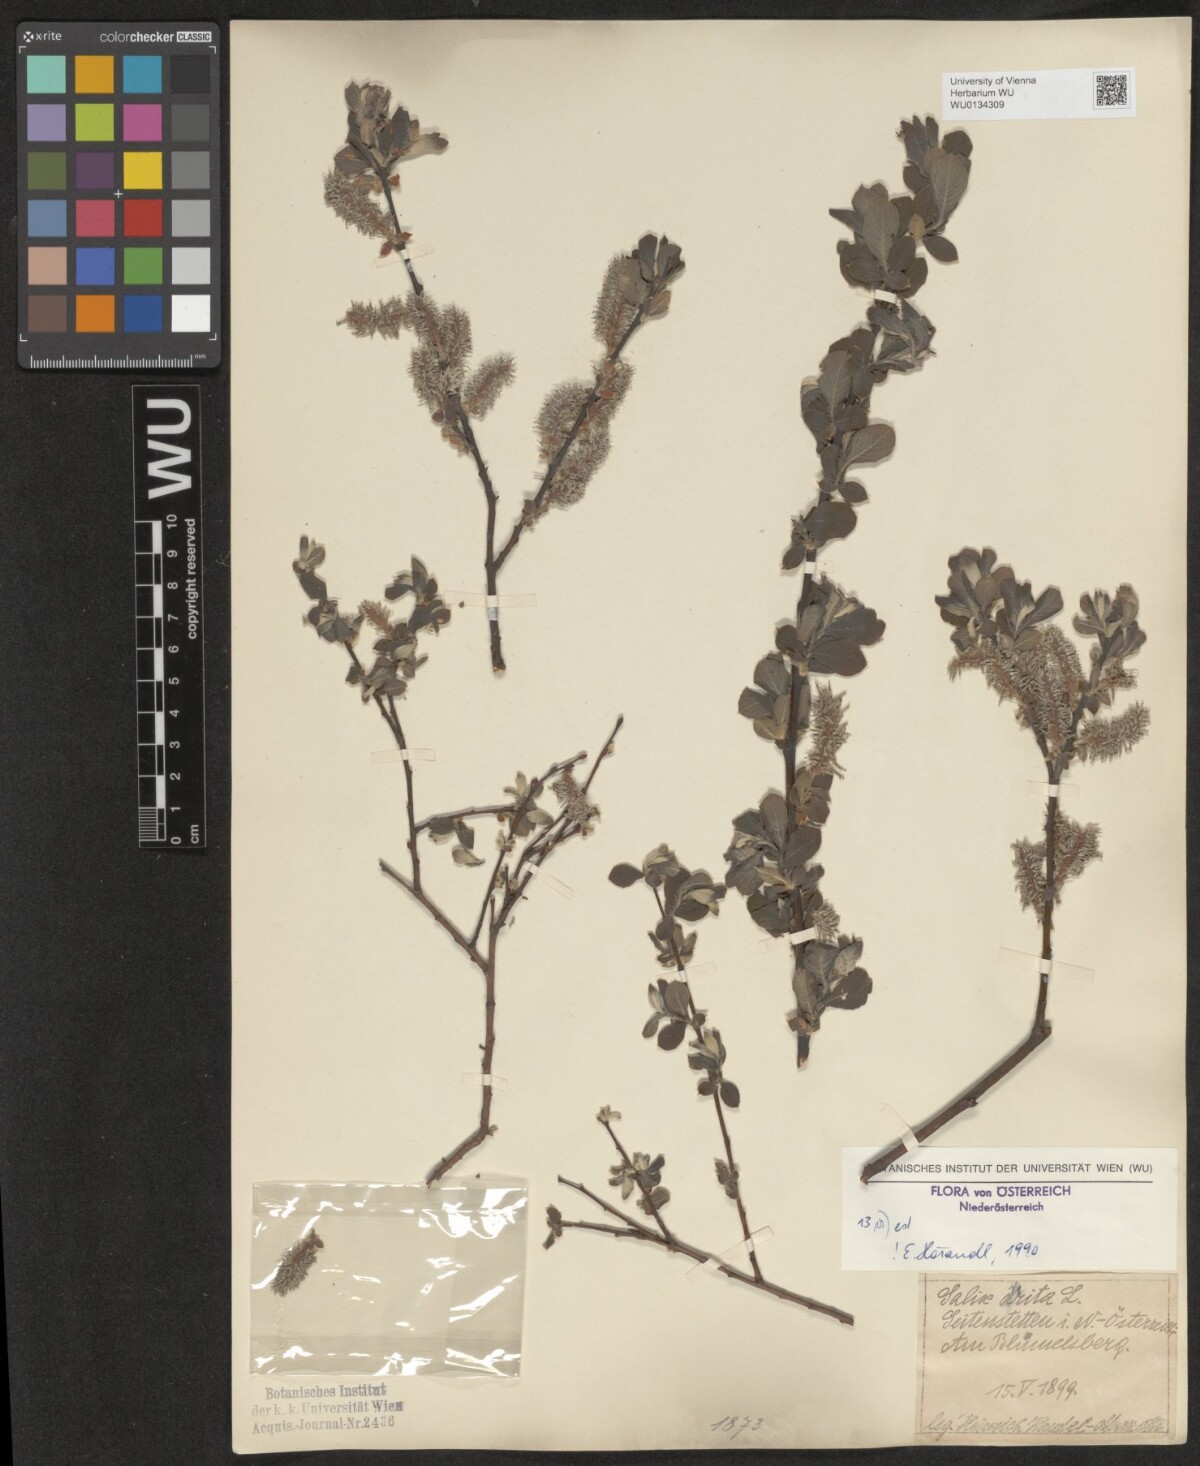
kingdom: Plantae
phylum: Tracheophyta
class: Magnoliopsida
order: Malpighiales
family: Salicaceae
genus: Salix
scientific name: Salix aurita
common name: Eared willow
